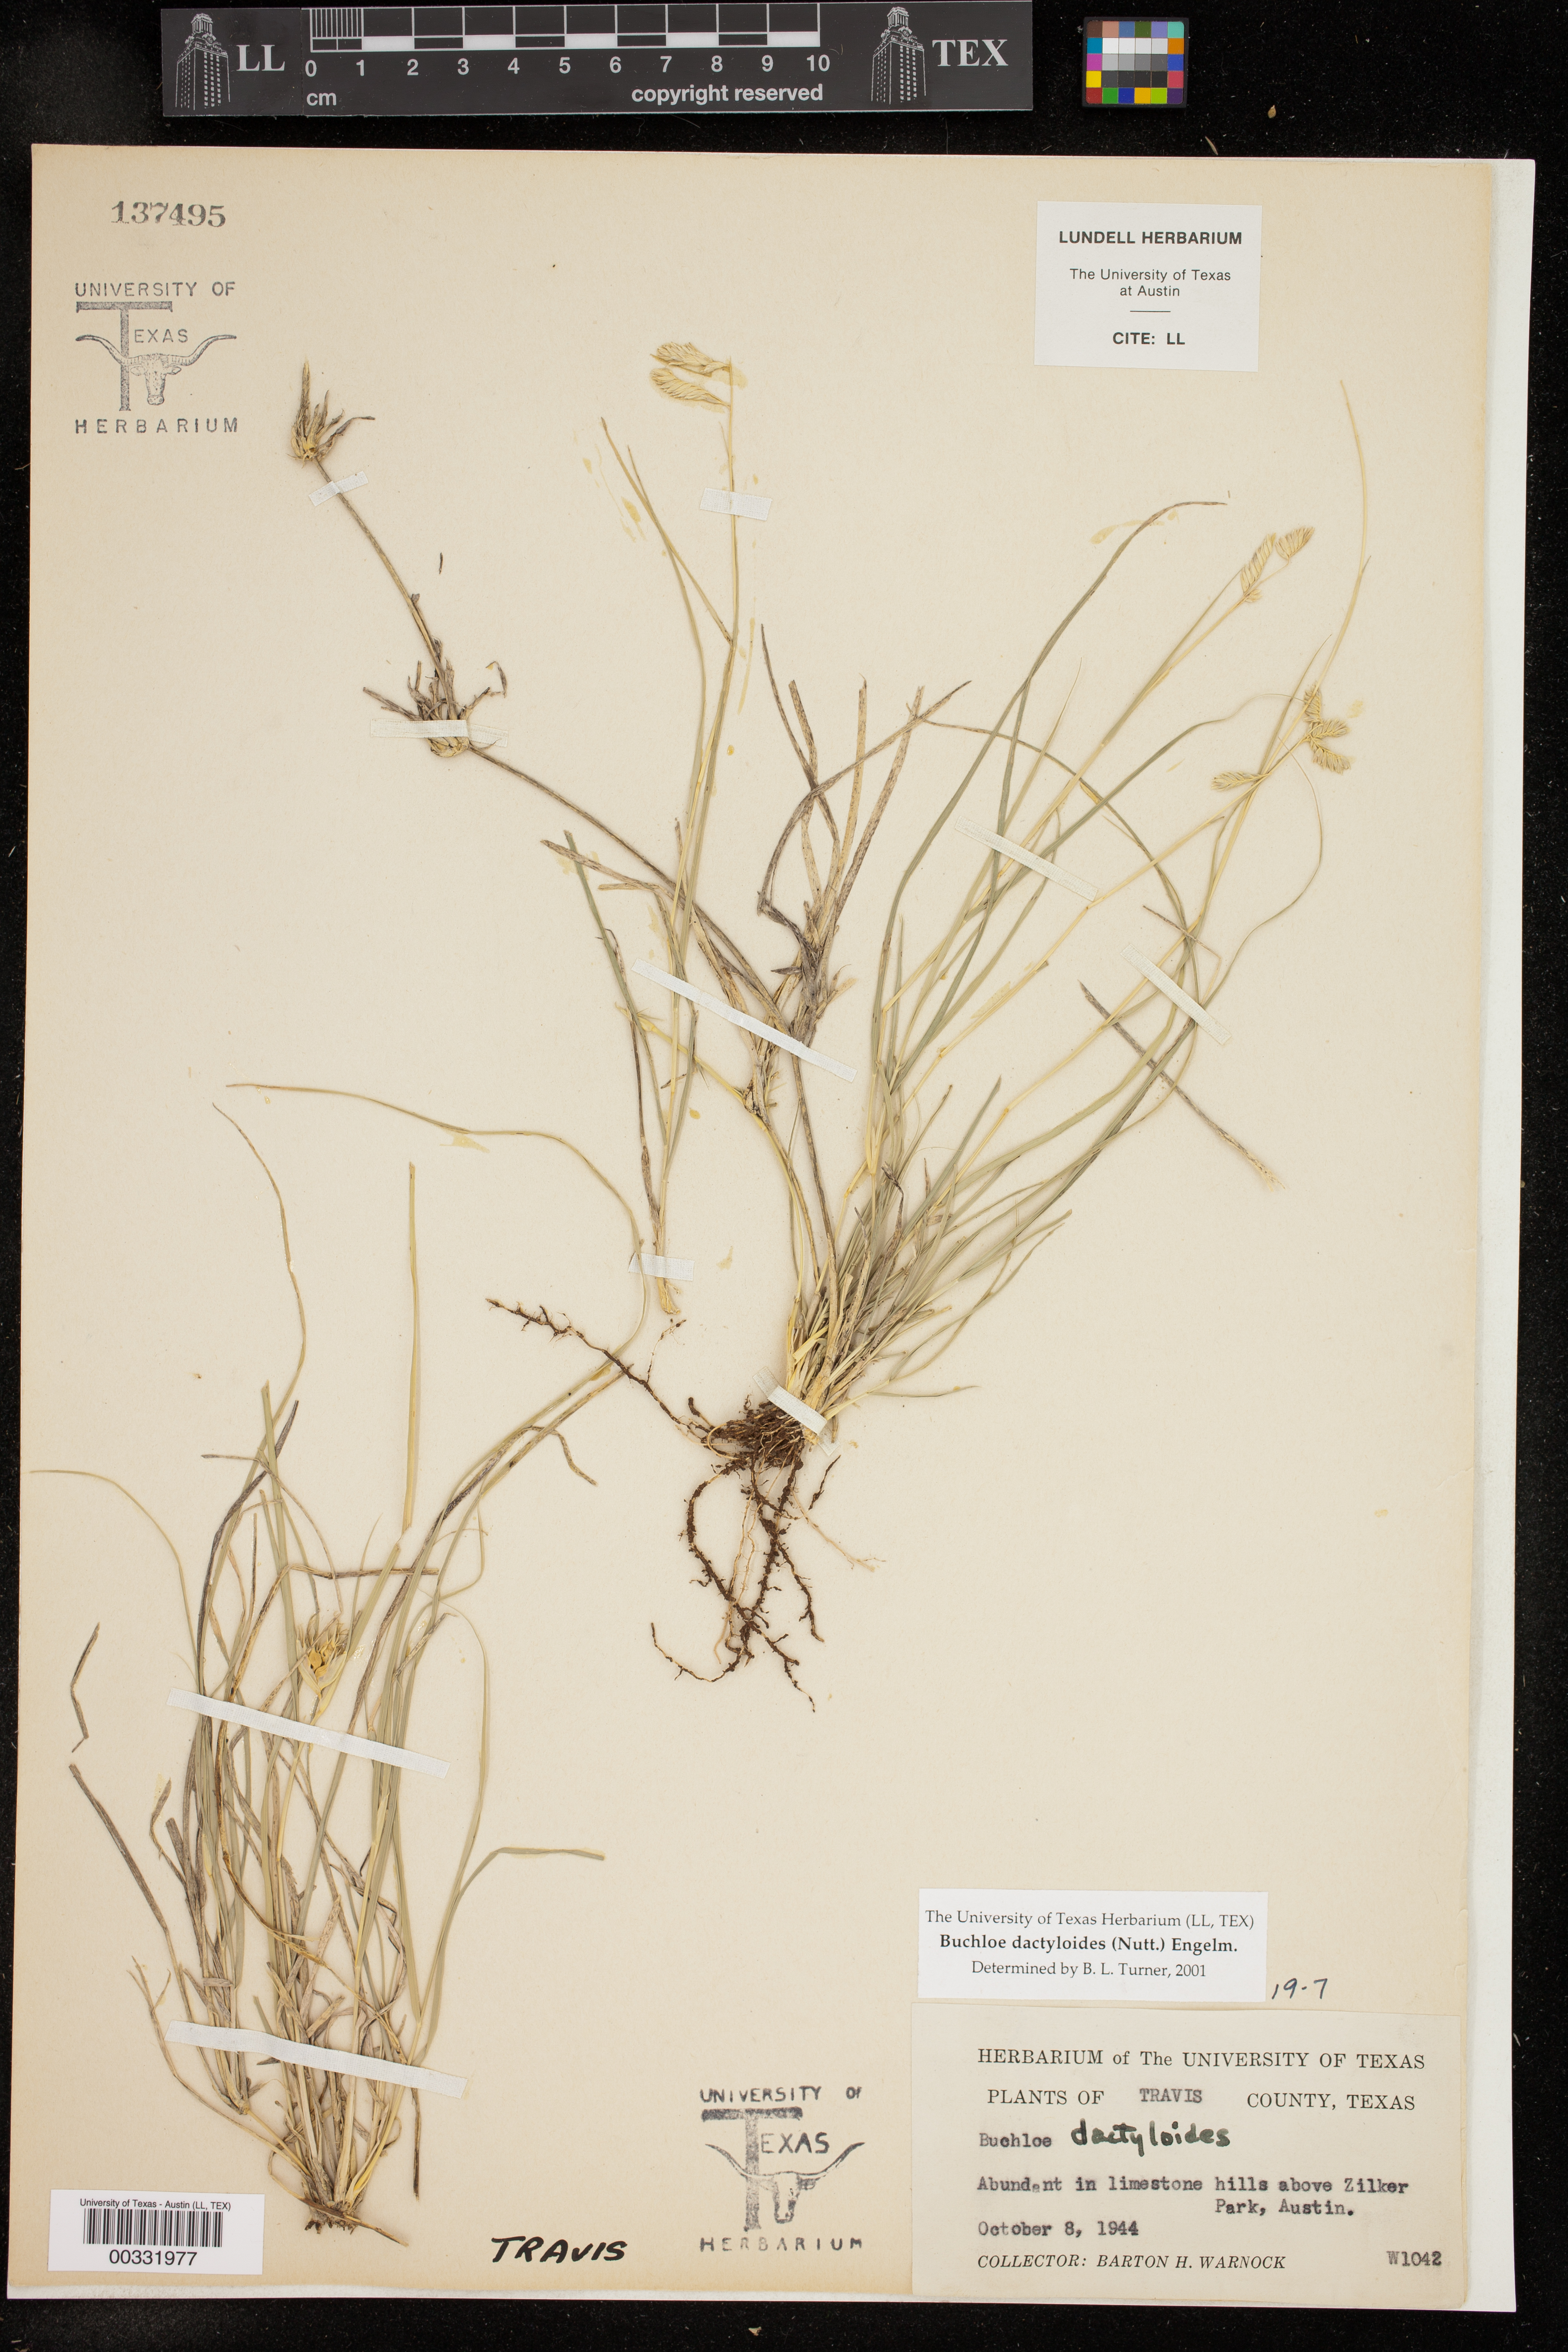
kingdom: Plantae
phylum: Tracheophyta
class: Liliopsida
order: Poales
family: Poaceae
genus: Bouteloua
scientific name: Bouteloua dactyloides
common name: Buffalo grass
